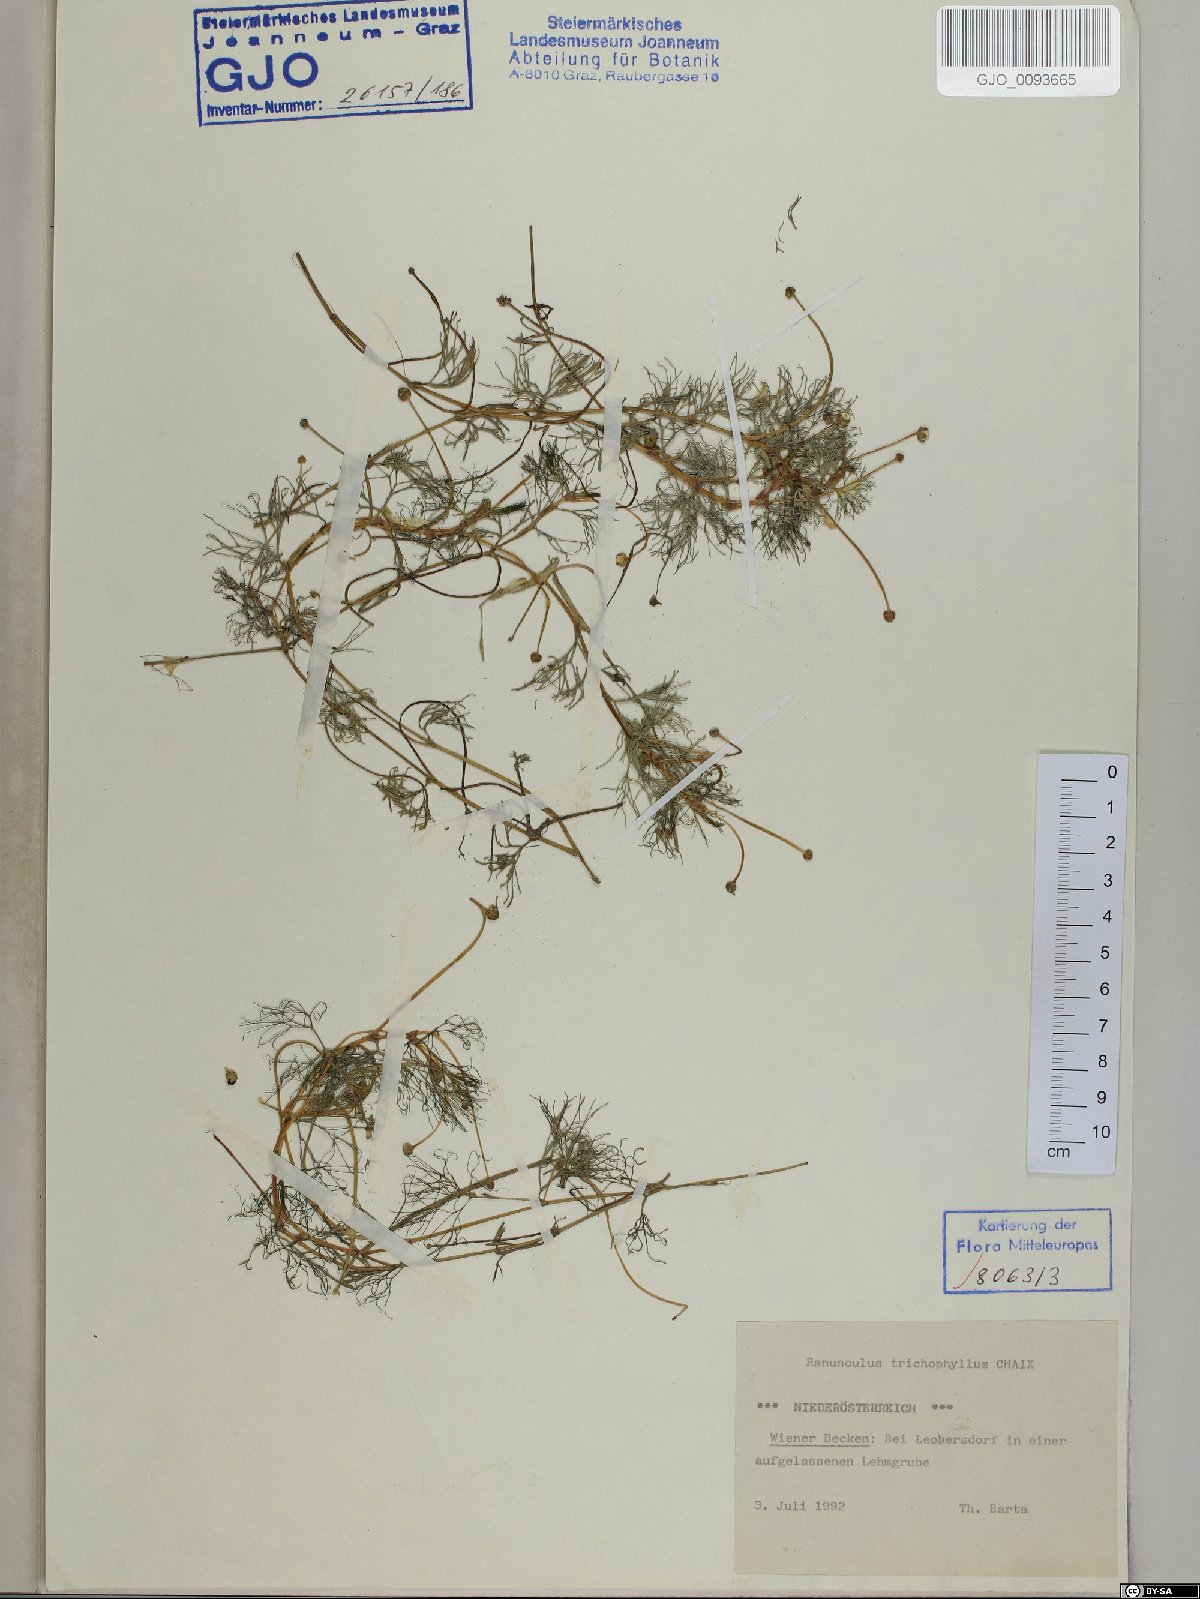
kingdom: Plantae
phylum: Tracheophyta
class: Magnoliopsida
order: Ranunculales
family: Ranunculaceae
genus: Ranunculus
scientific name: Ranunculus trichophyllus
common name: Thread-leaved water-crowfoot
